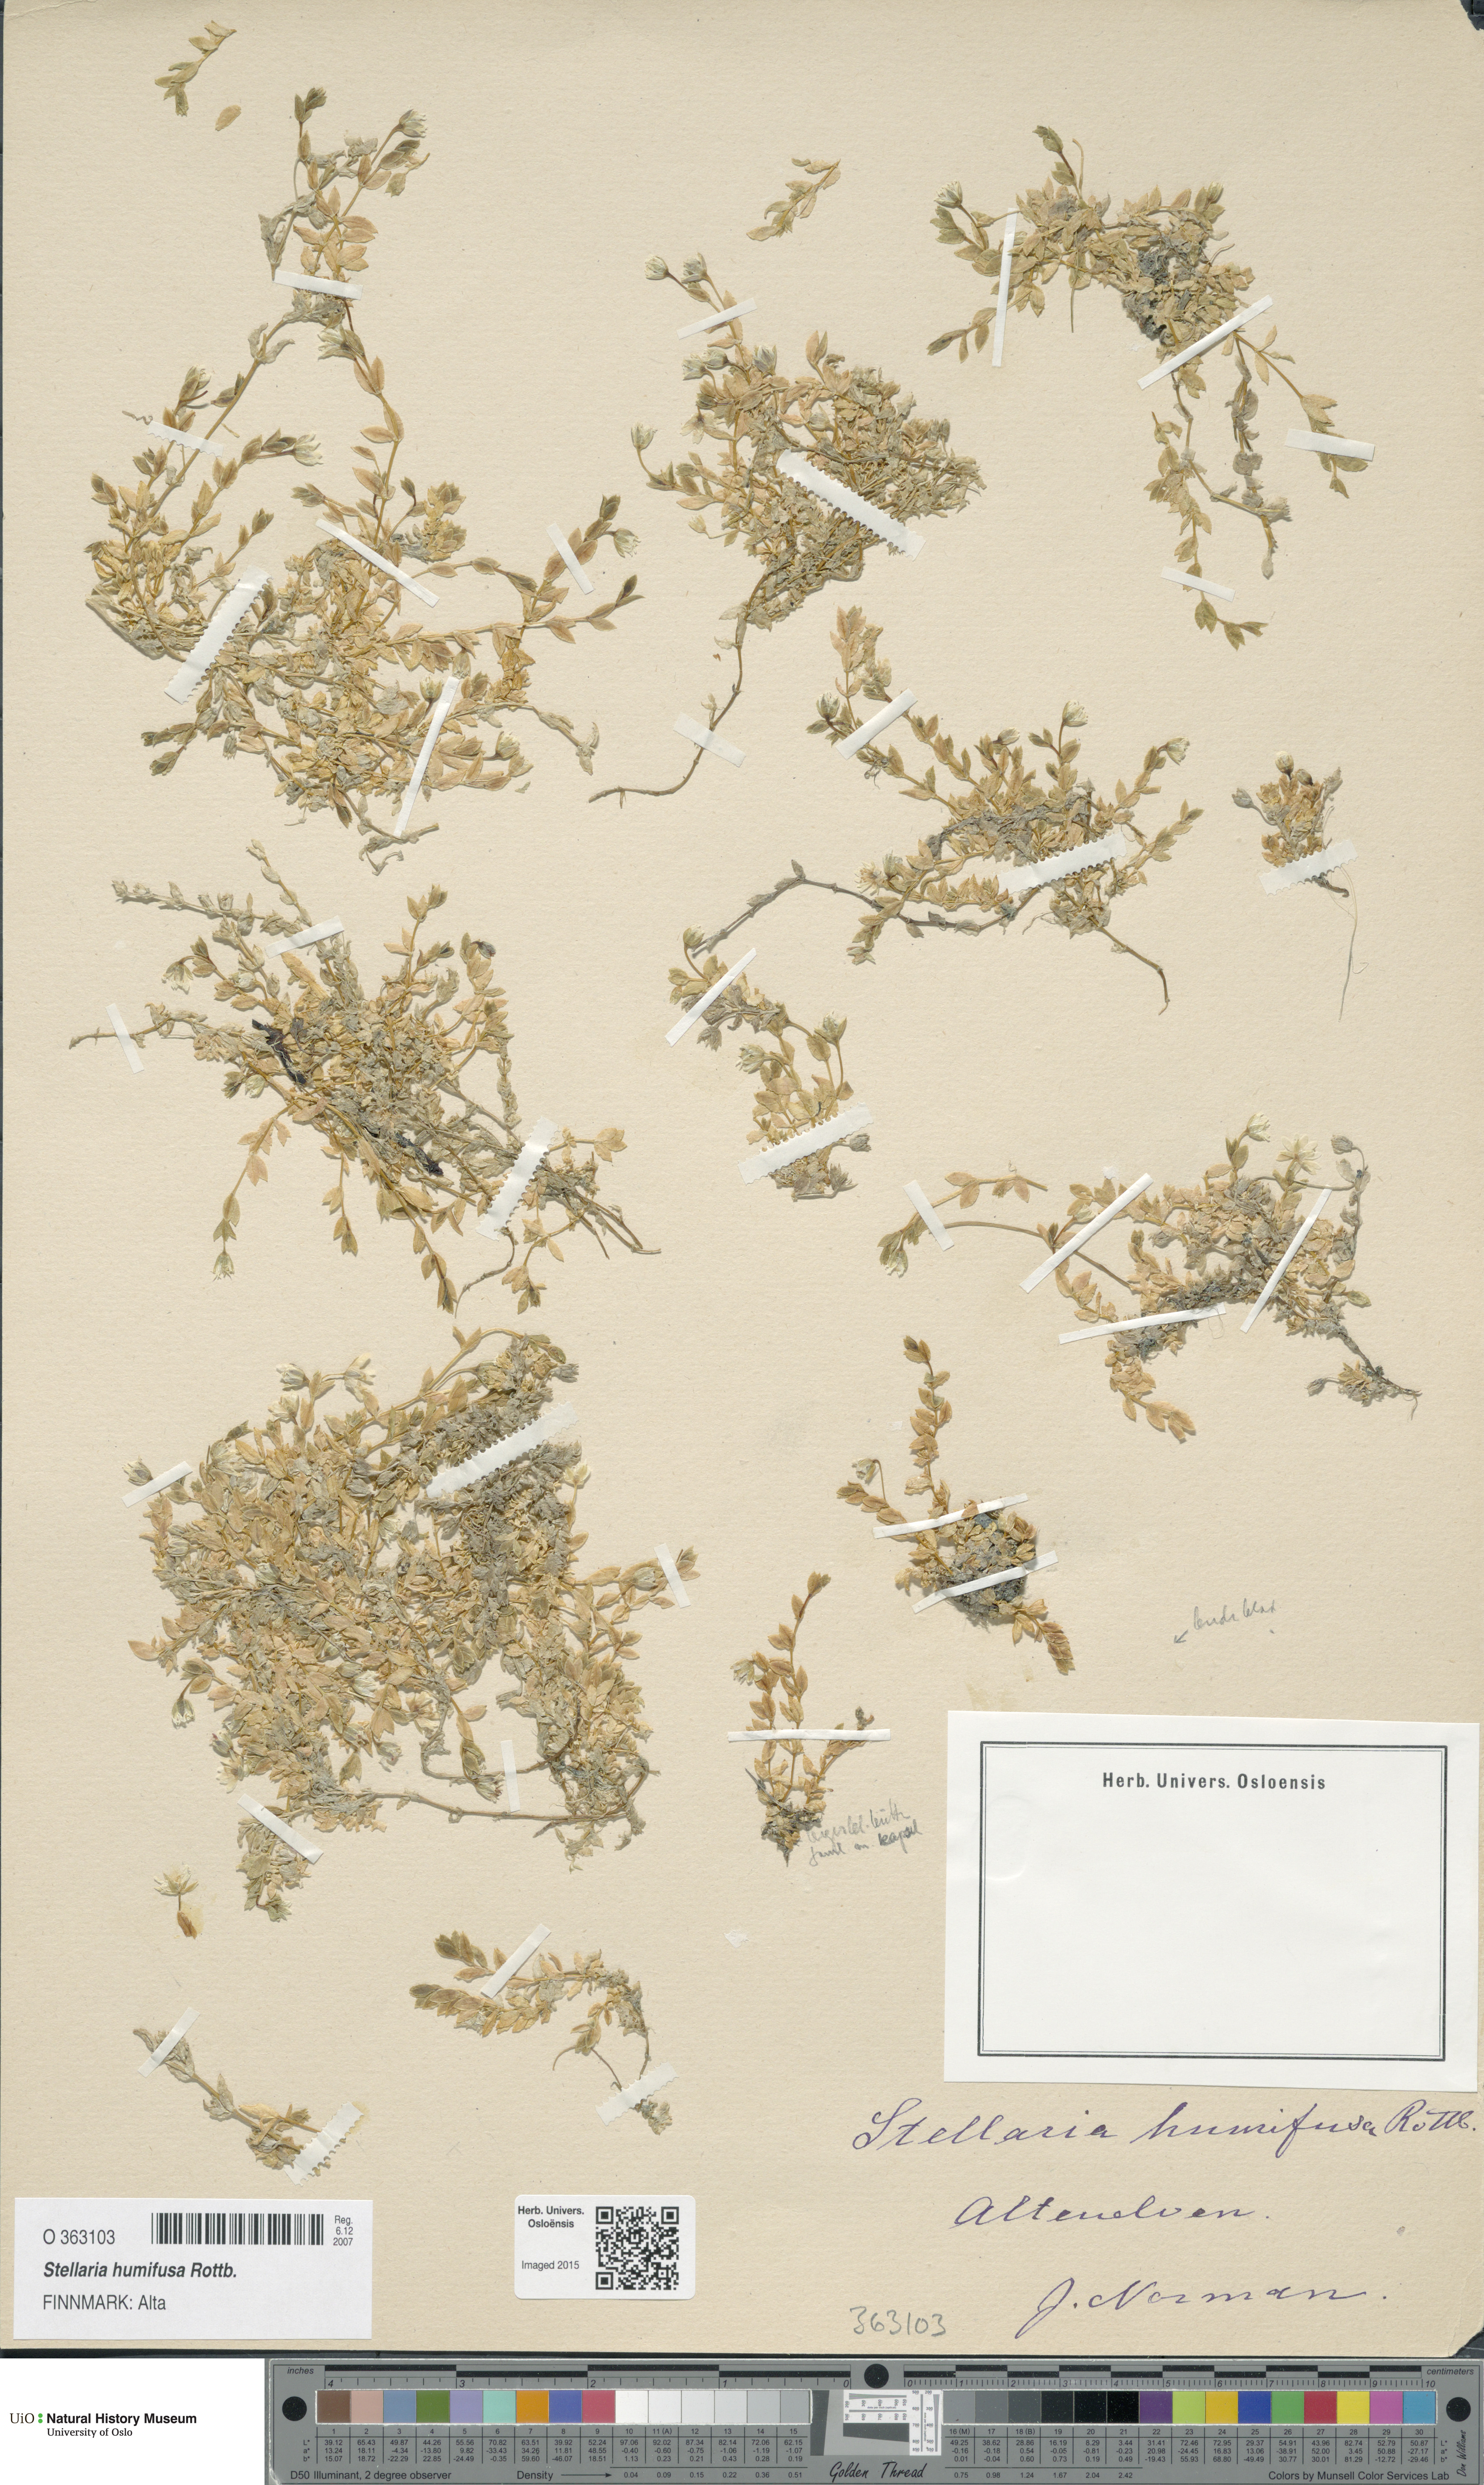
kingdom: Plantae
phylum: Tracheophyta
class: Magnoliopsida
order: Caryophyllales
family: Caryophyllaceae
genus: Stellaria
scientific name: Stellaria humifusa
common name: Creeping starwort
